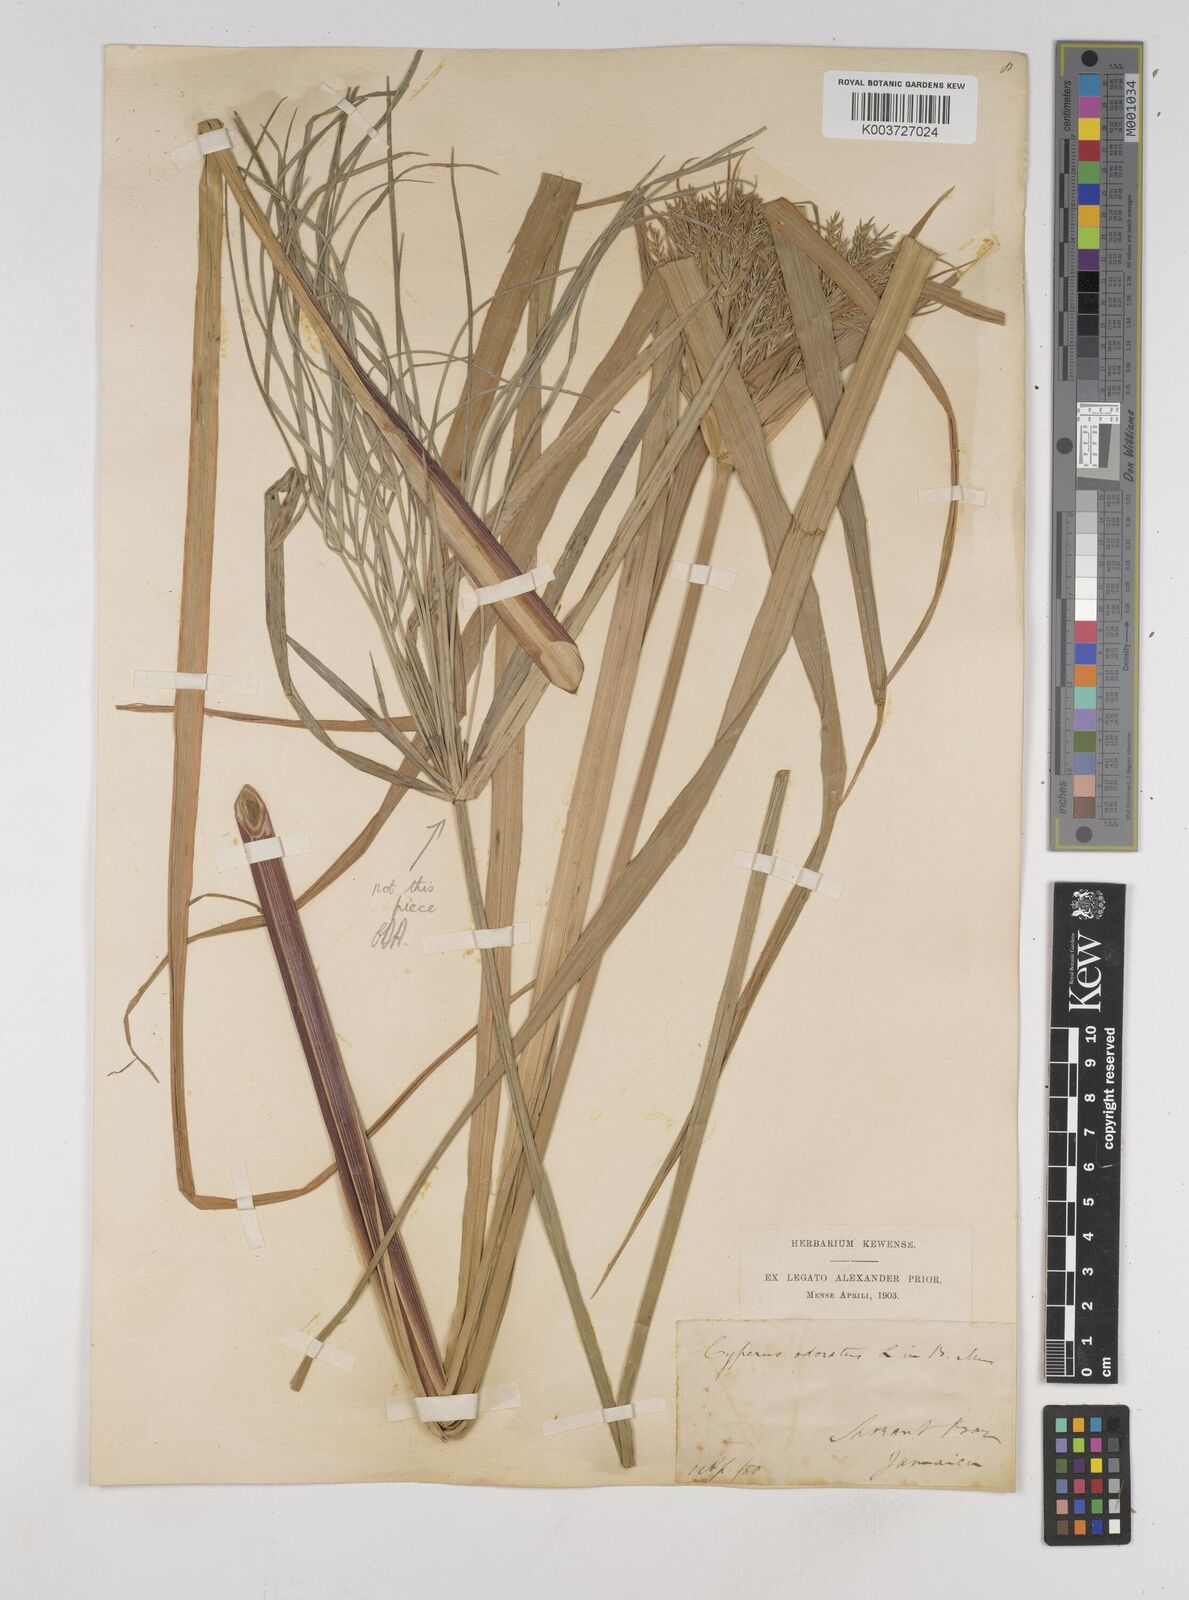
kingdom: Plantae
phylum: Tracheophyta
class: Liliopsida
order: Poales
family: Cyperaceae
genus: Cyperus
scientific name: Cyperus odoratus
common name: Fragrant flatsedge
